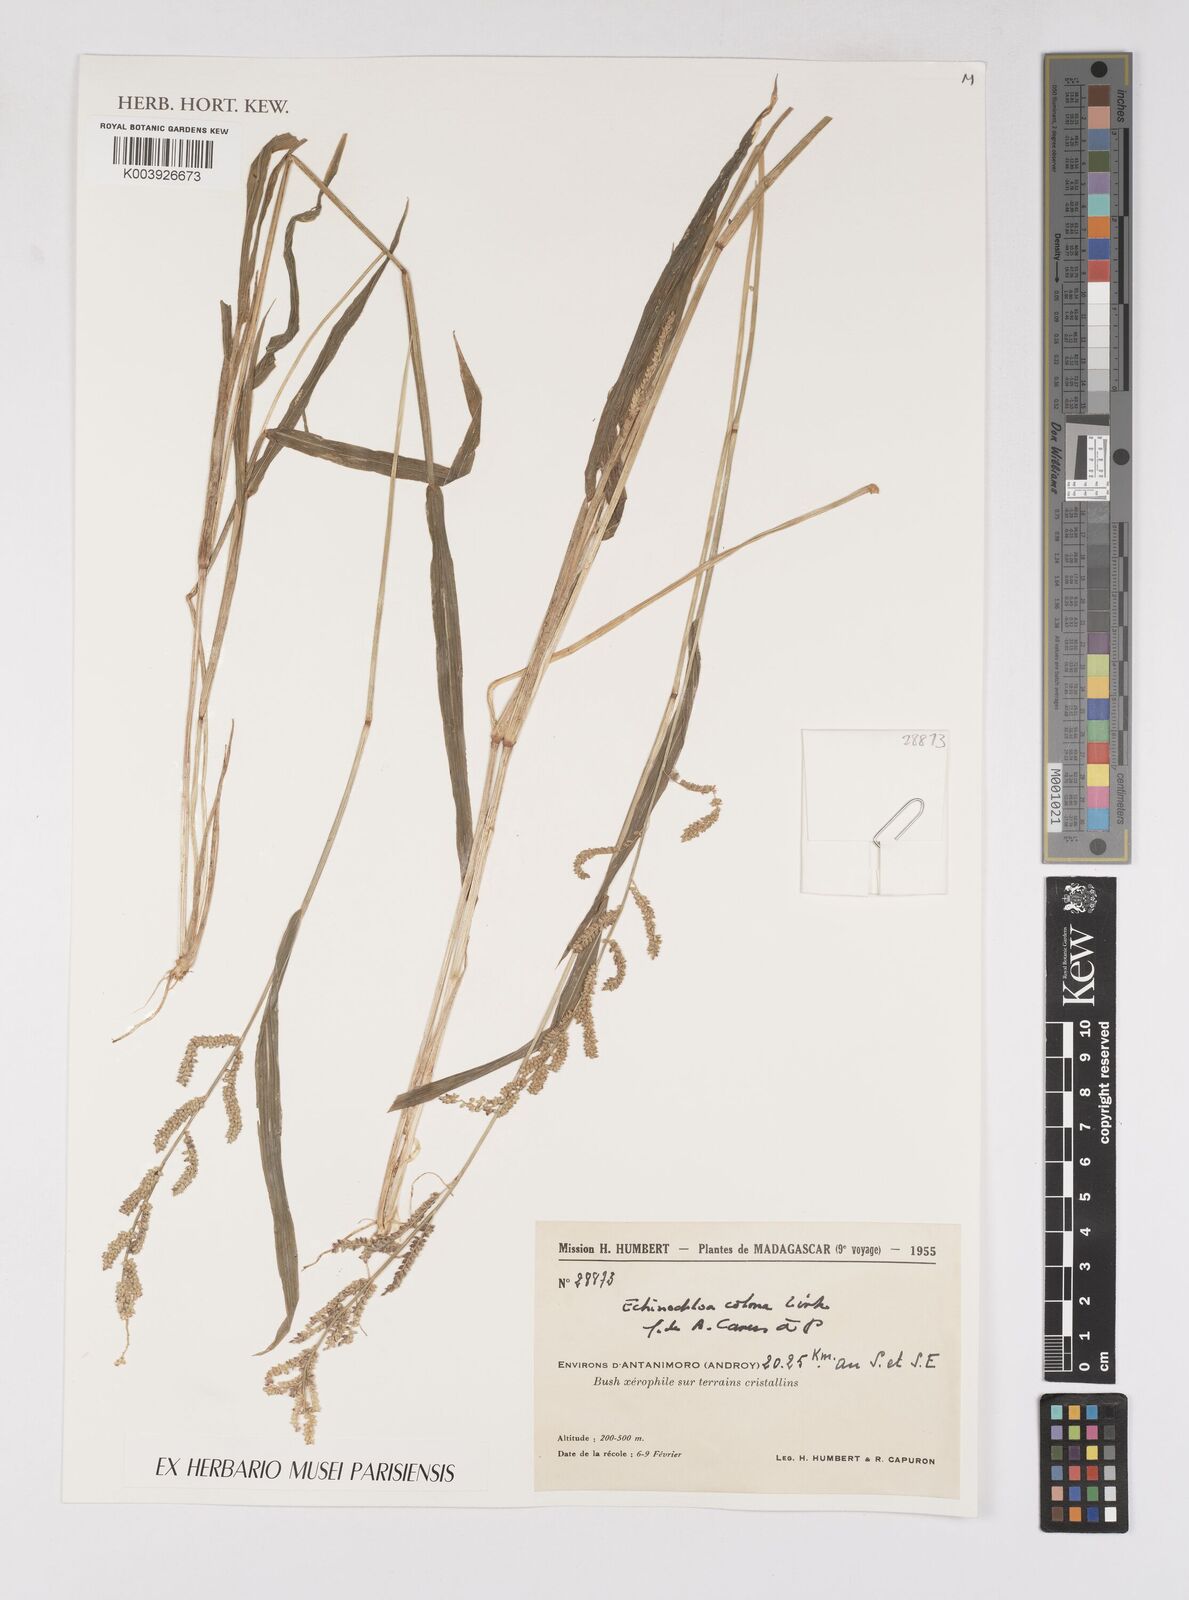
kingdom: Plantae
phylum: Tracheophyta
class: Liliopsida
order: Poales
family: Poaceae
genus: Echinochloa
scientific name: Echinochloa colonum
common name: Jungle rice
